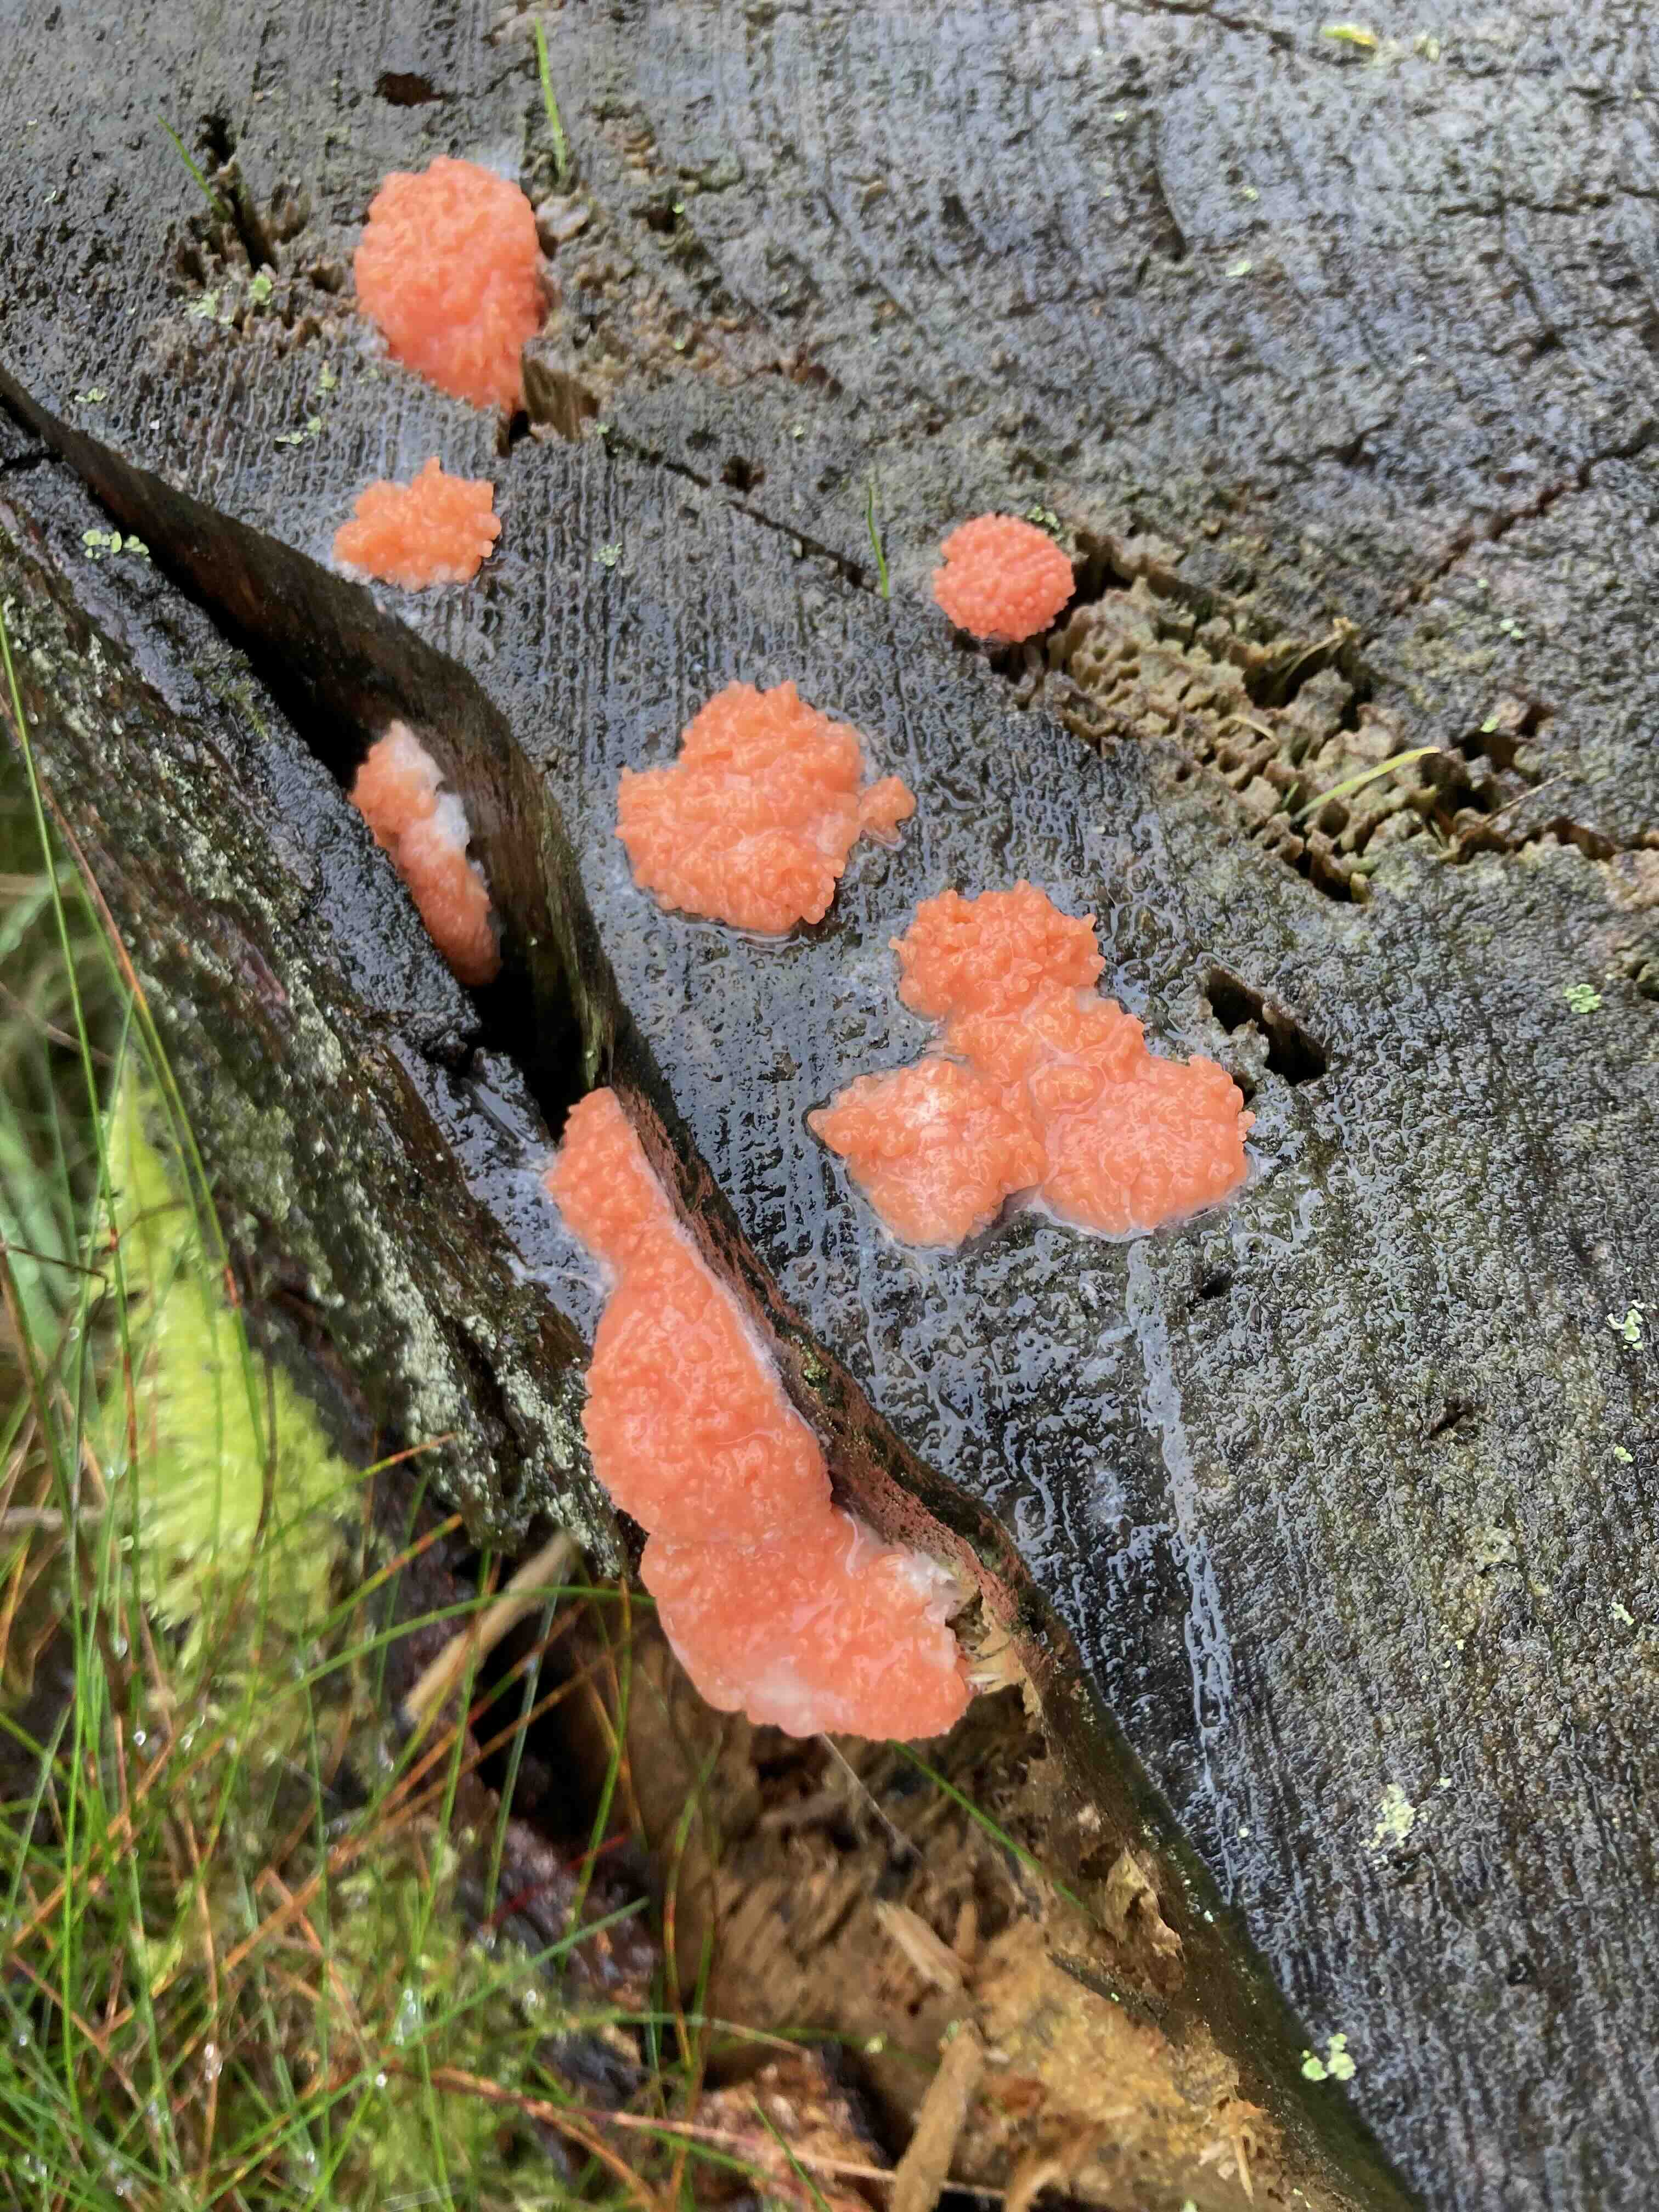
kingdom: Protozoa
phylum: Mycetozoa
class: Myxomycetes
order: Cribrariales
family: Tubiferaceae
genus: Tubifera
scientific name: Tubifera ferruginosa
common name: kanel-støvrør
